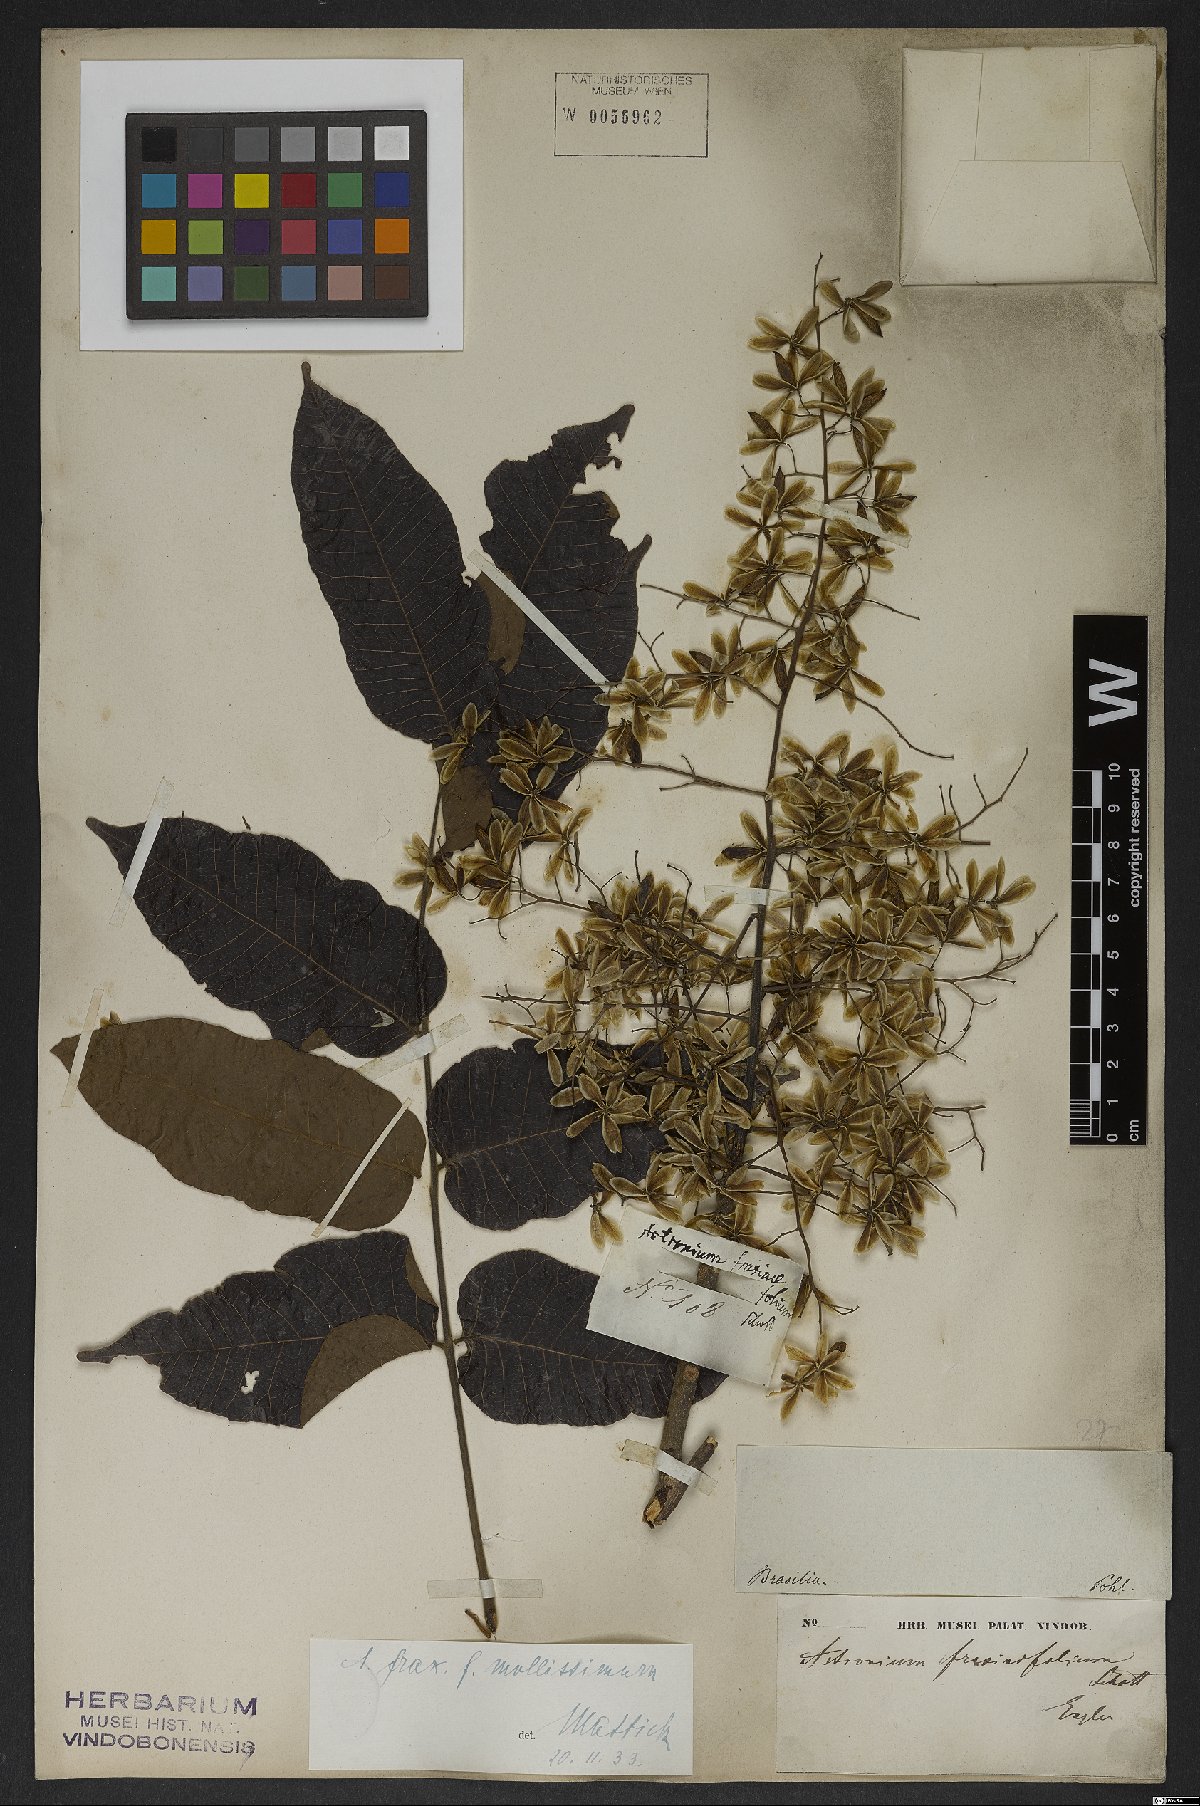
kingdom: Plantae
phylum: Tracheophyta
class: Magnoliopsida
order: Sapindales
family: Anacardiaceae
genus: Astronium
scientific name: Astronium fraxinifolium
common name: Tigerwood
